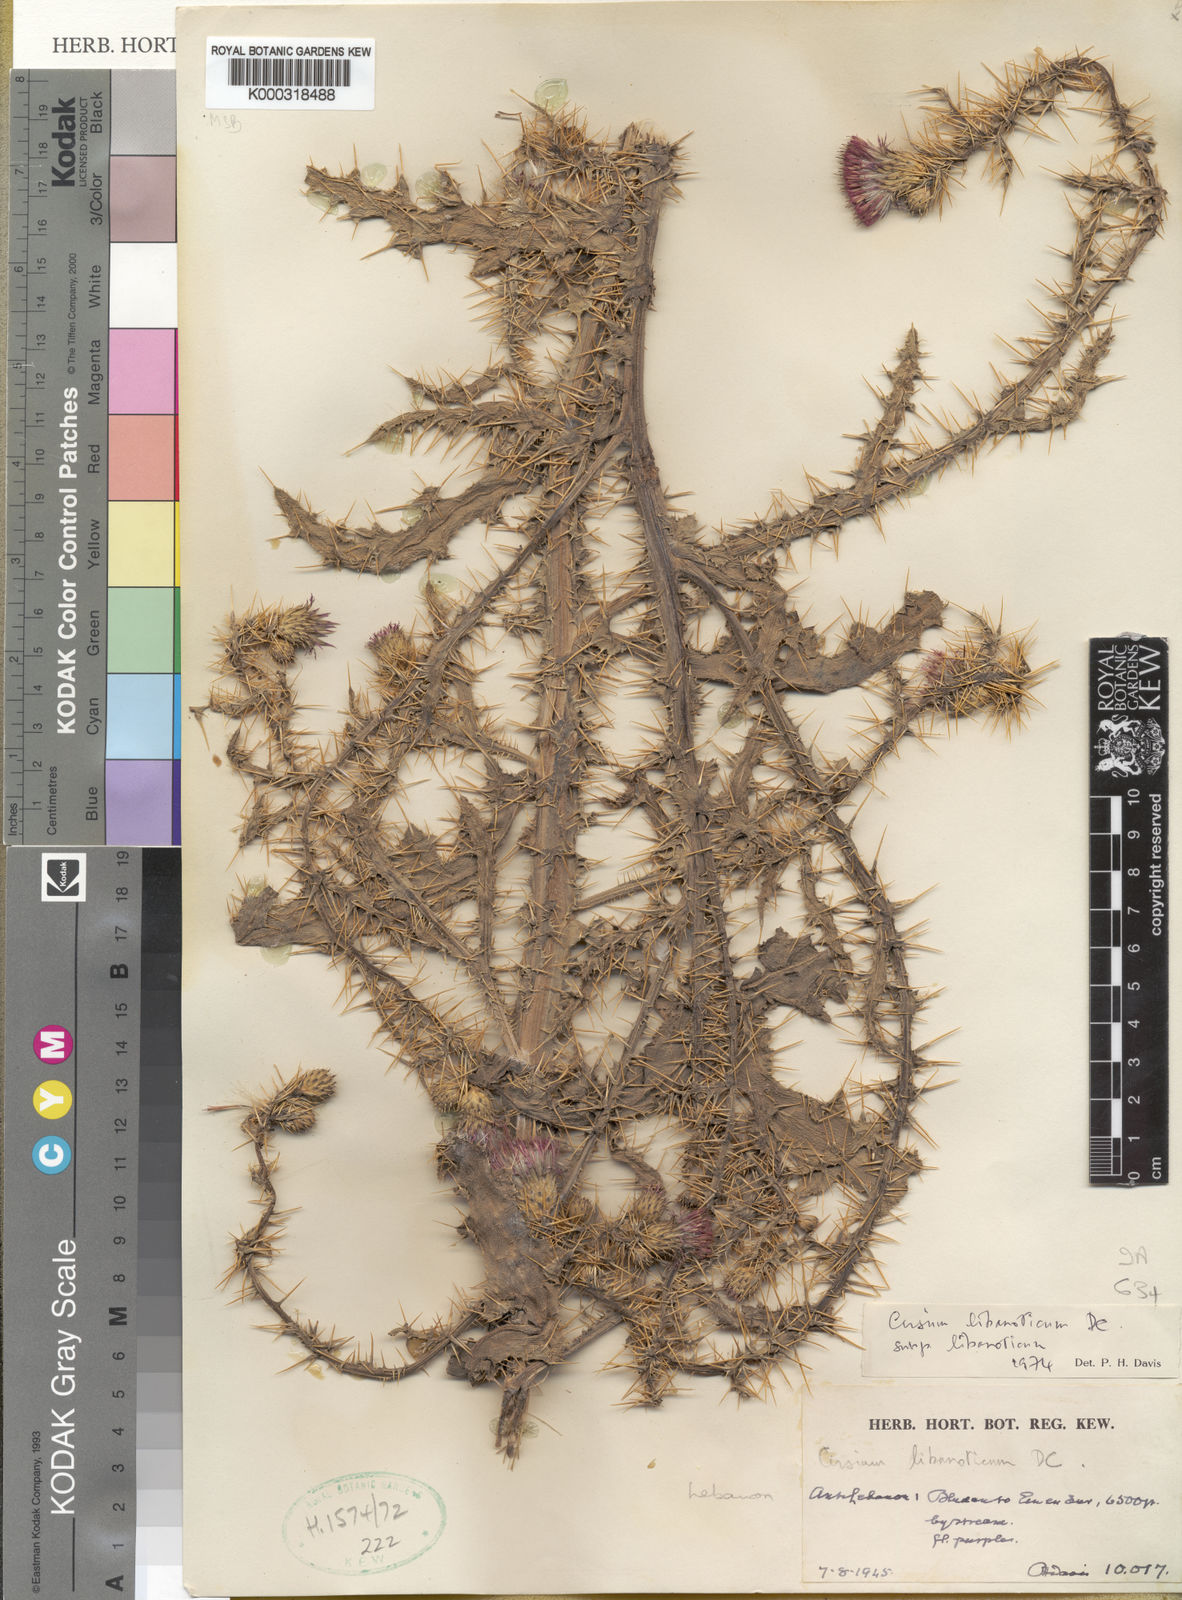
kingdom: Plantae
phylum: Tracheophyta
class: Magnoliopsida
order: Asterales
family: Asteraceae
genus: Cirsium
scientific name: Cirsium libanoticum
